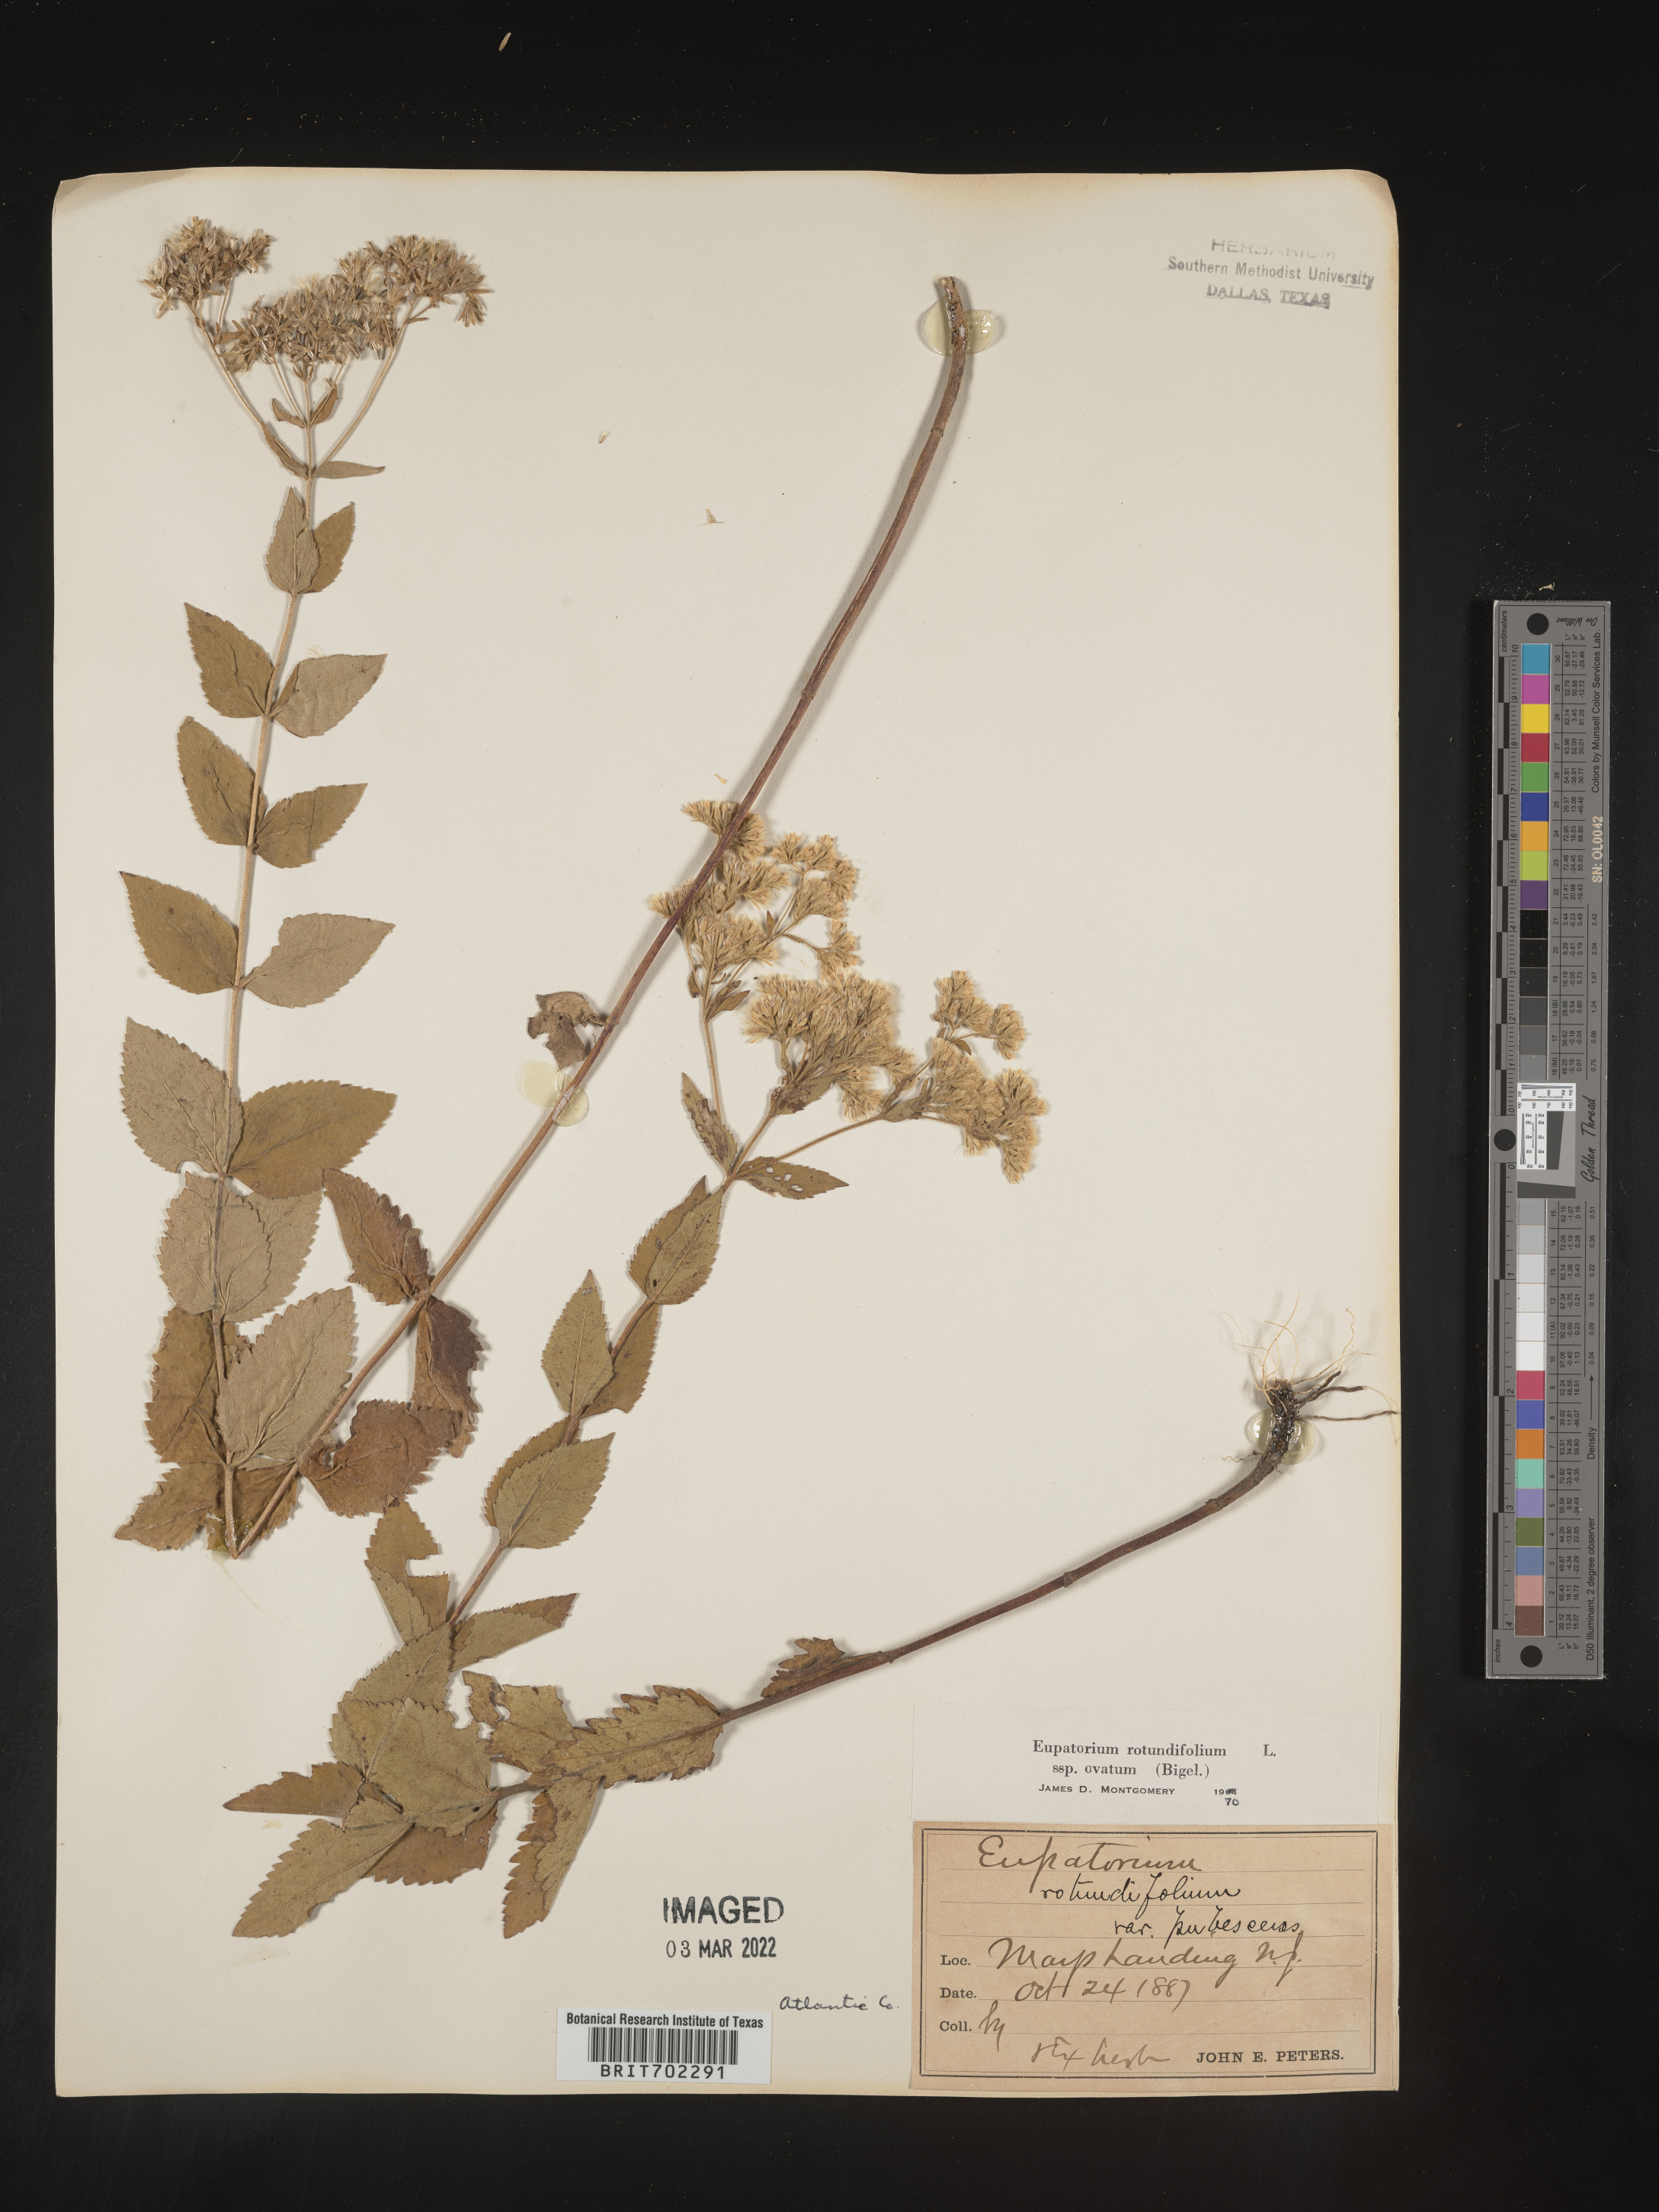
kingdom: Plantae
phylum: Tracheophyta
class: Magnoliopsida
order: Asterales
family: Asteraceae
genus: Eupatorium
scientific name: Eupatorium rotundifolium
